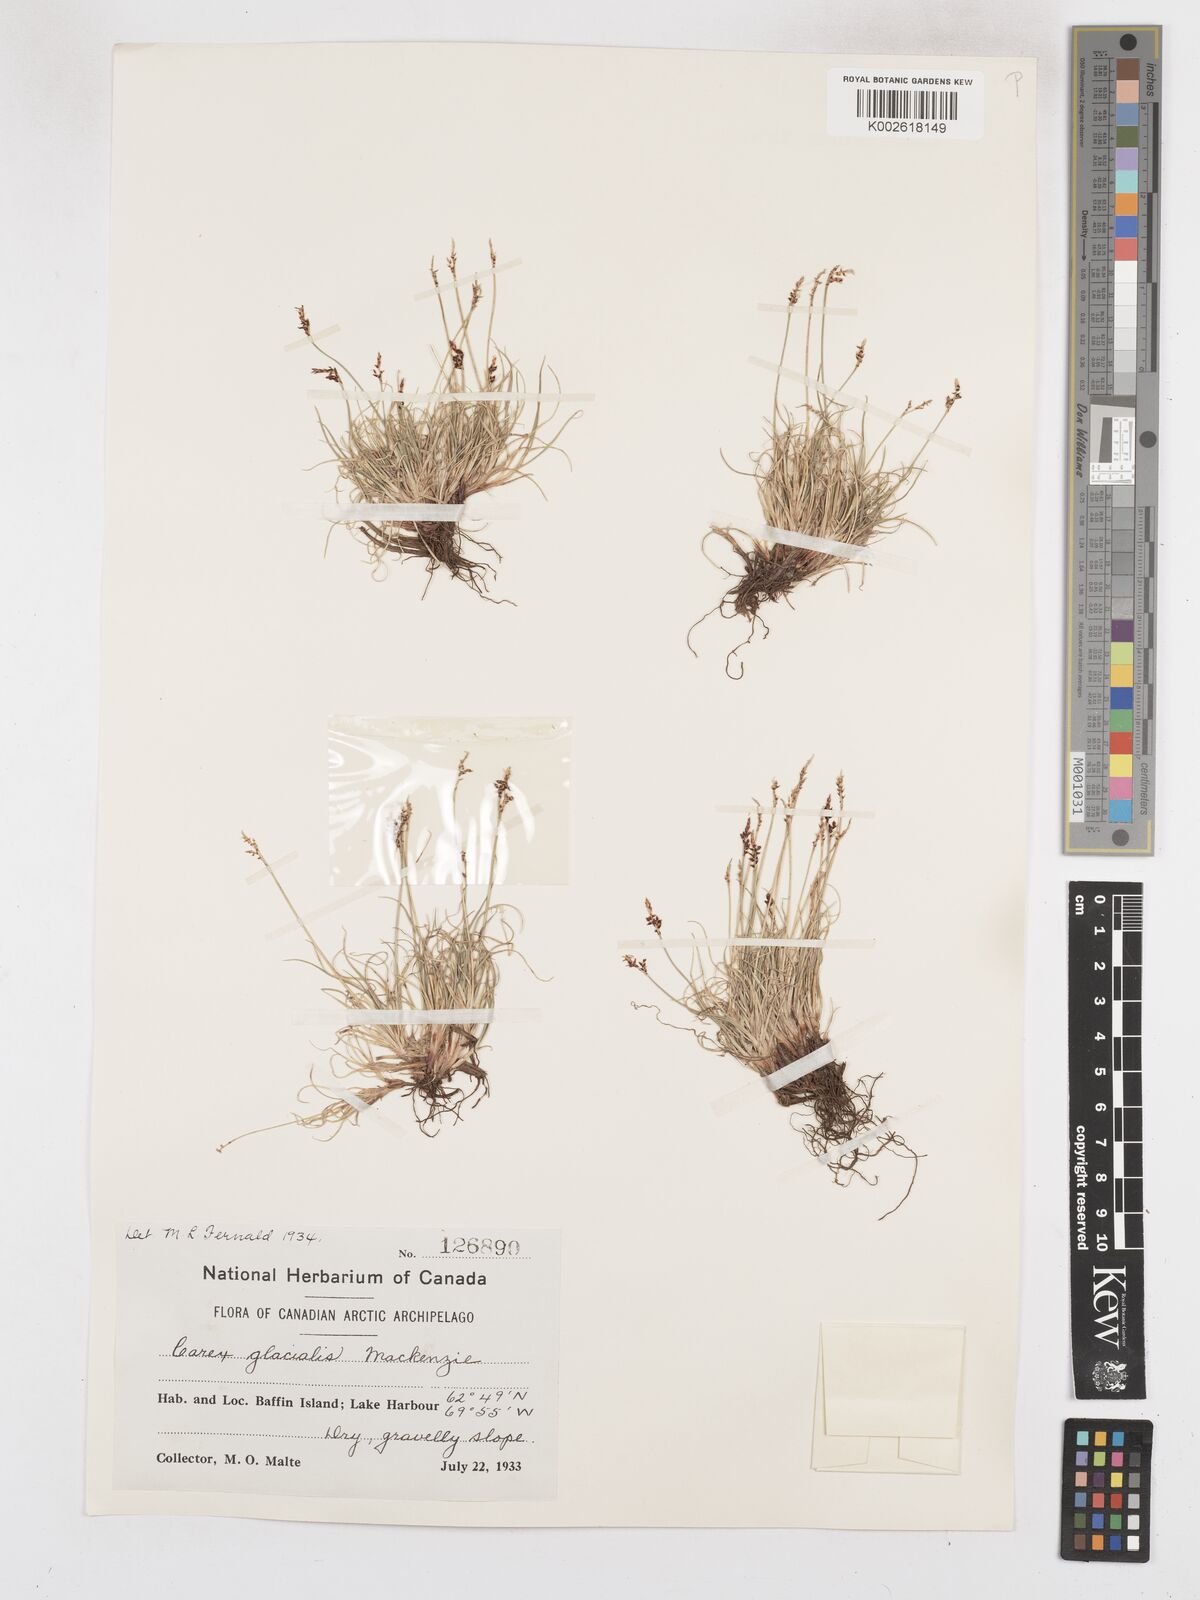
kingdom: Plantae
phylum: Tracheophyta
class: Liliopsida
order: Poales
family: Cyperaceae
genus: Carex
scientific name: Carex glacialis
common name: Newfoundland sedge
